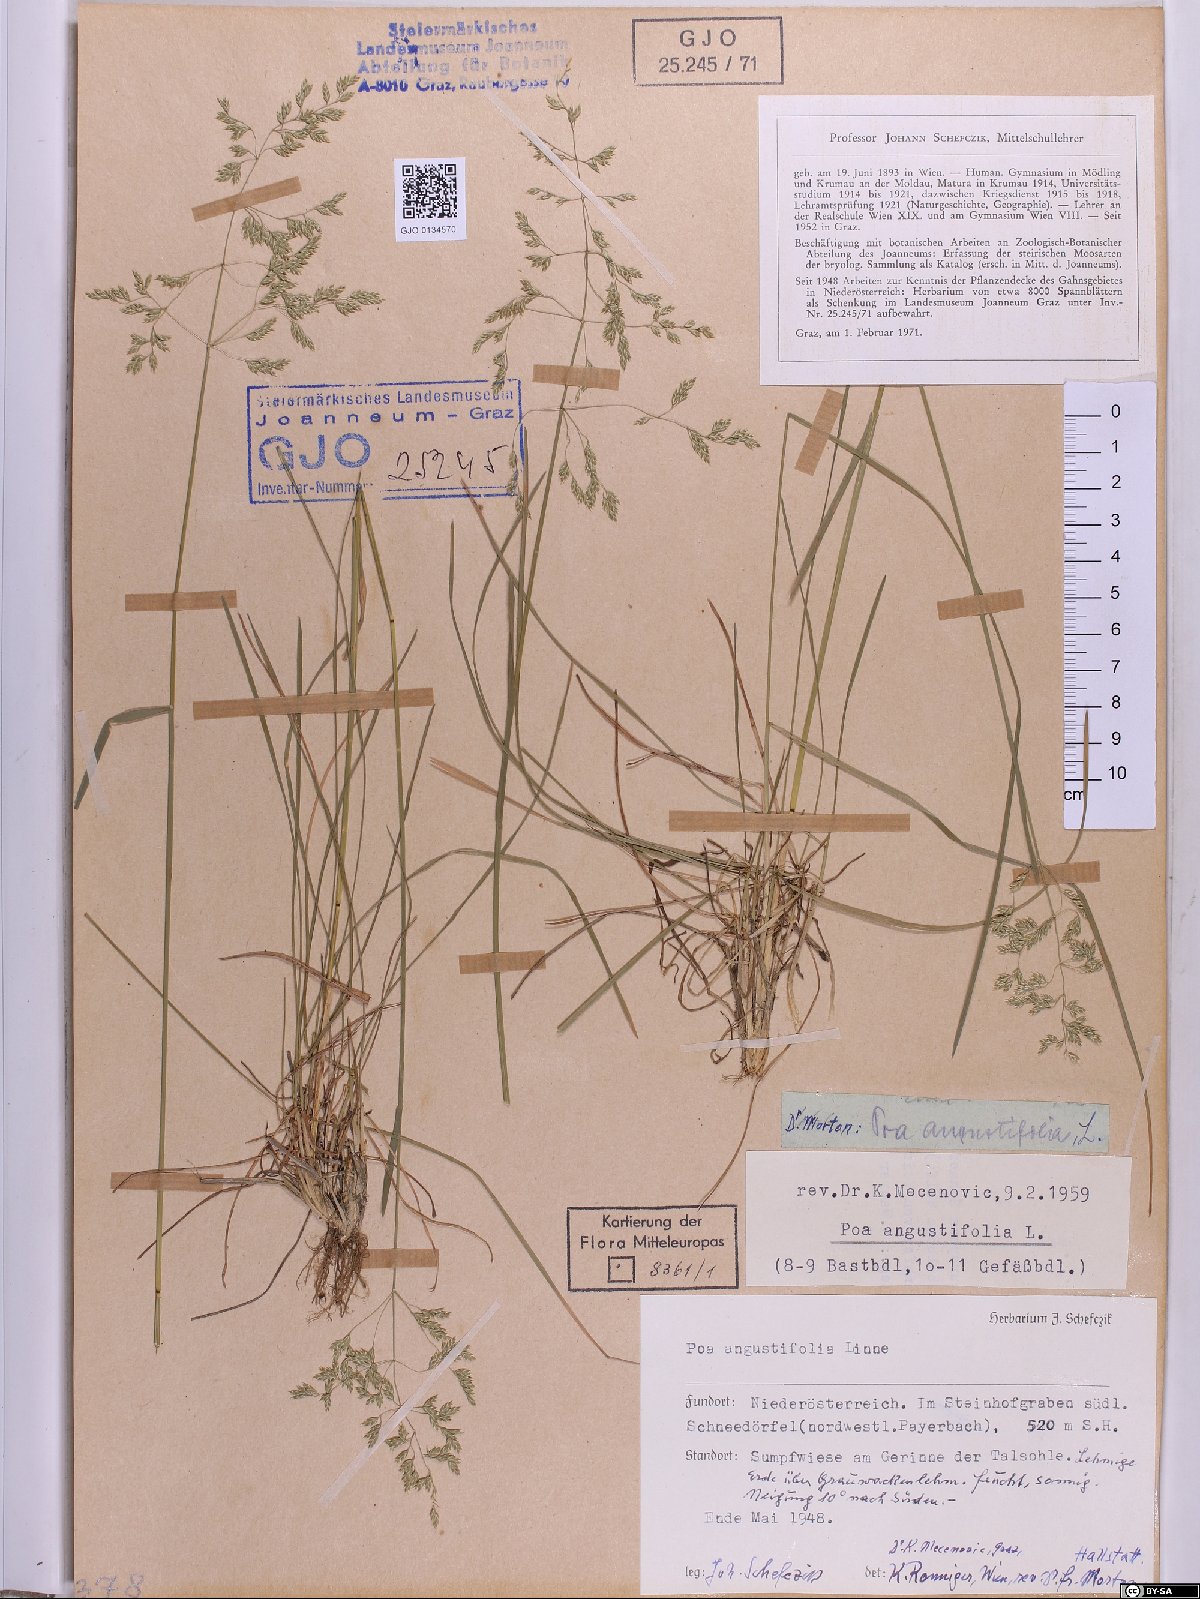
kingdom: Plantae
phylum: Tracheophyta
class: Liliopsida
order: Poales
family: Poaceae
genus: Poa
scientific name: Poa angustifolia
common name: Narrow-leaved meadow-grass
